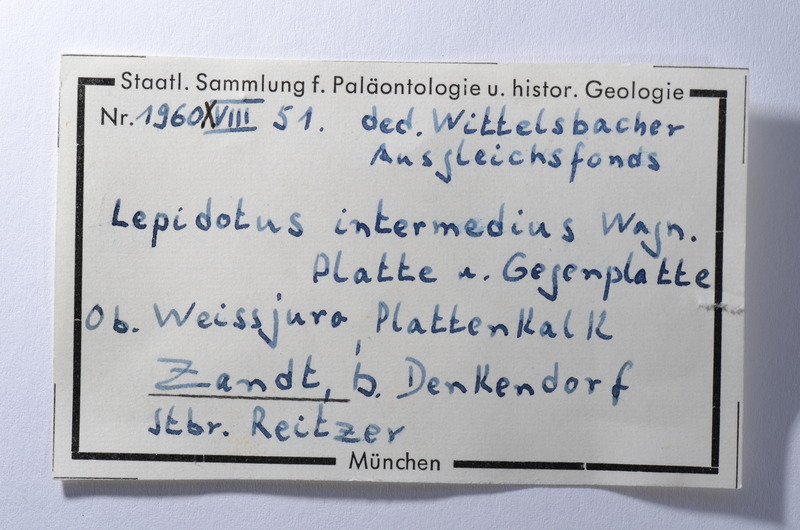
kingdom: Animalia
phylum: Chordata
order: Lepisosteiformes
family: Lepidotidae
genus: Lepidotes
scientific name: Lepidotes intermedius
